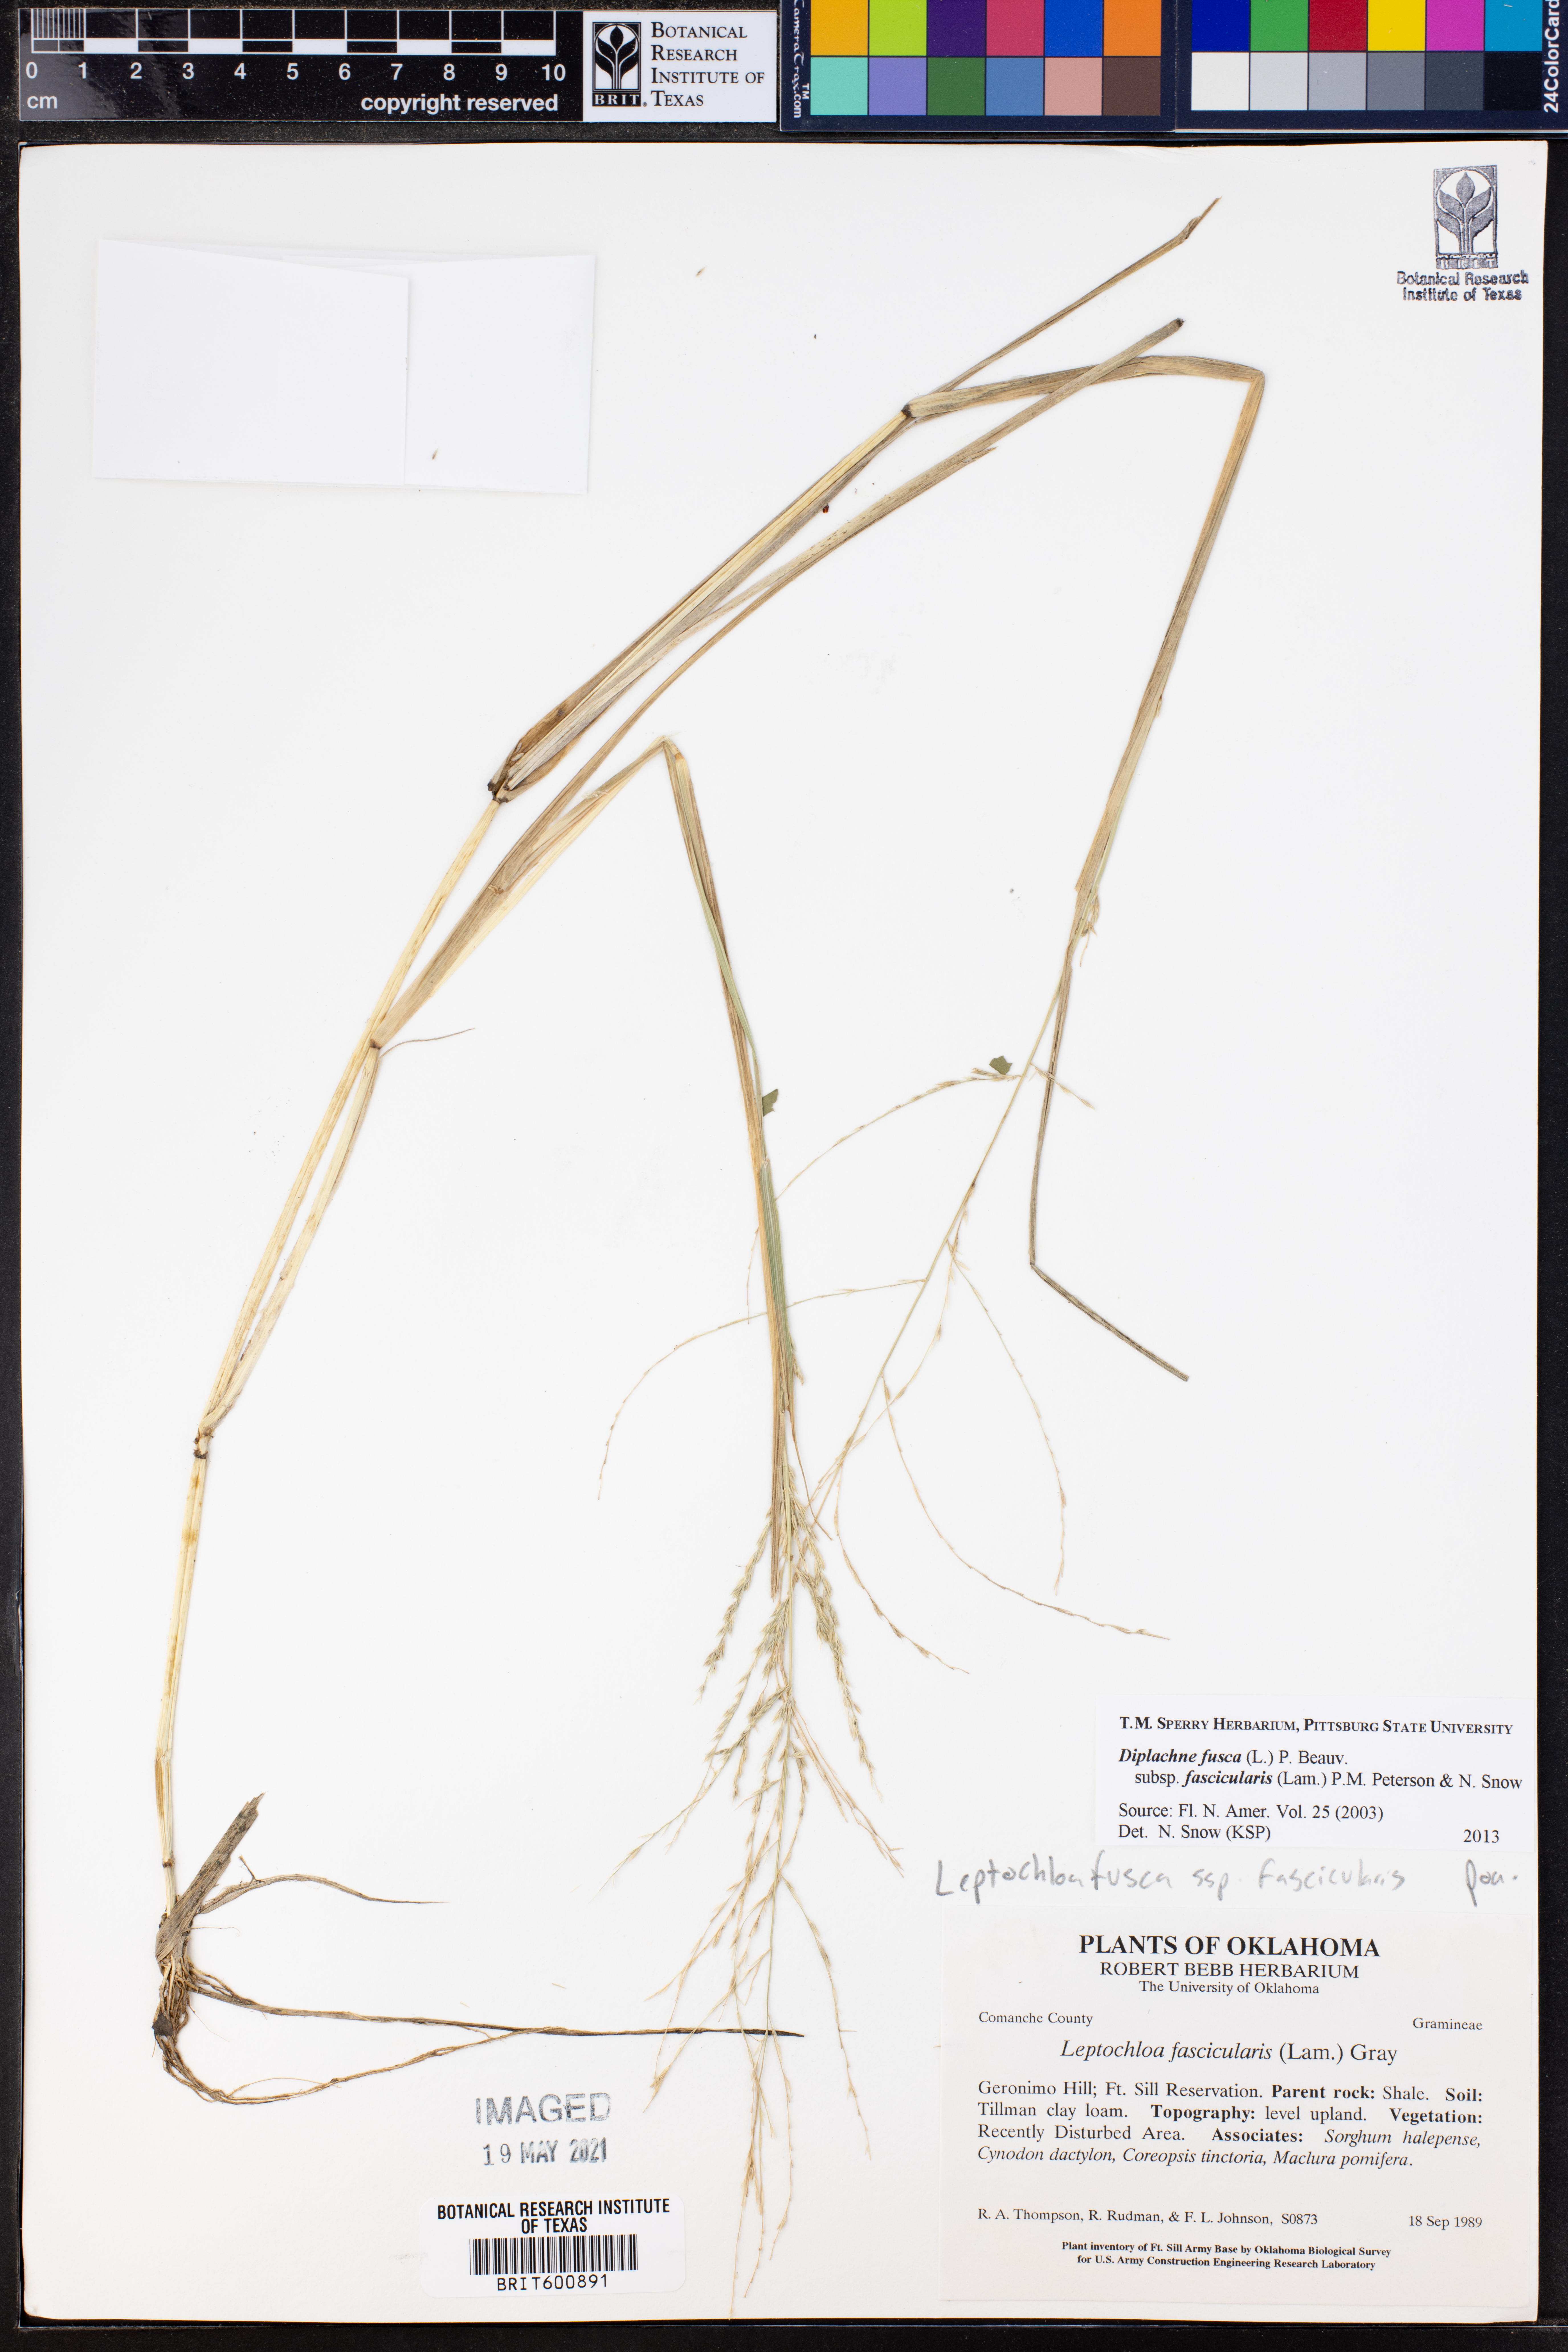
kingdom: Plantae
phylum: Tracheophyta
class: Liliopsida
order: Poales
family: Poaceae
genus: Diplachne
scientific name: Diplachne fusca
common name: Brown beetle grass
